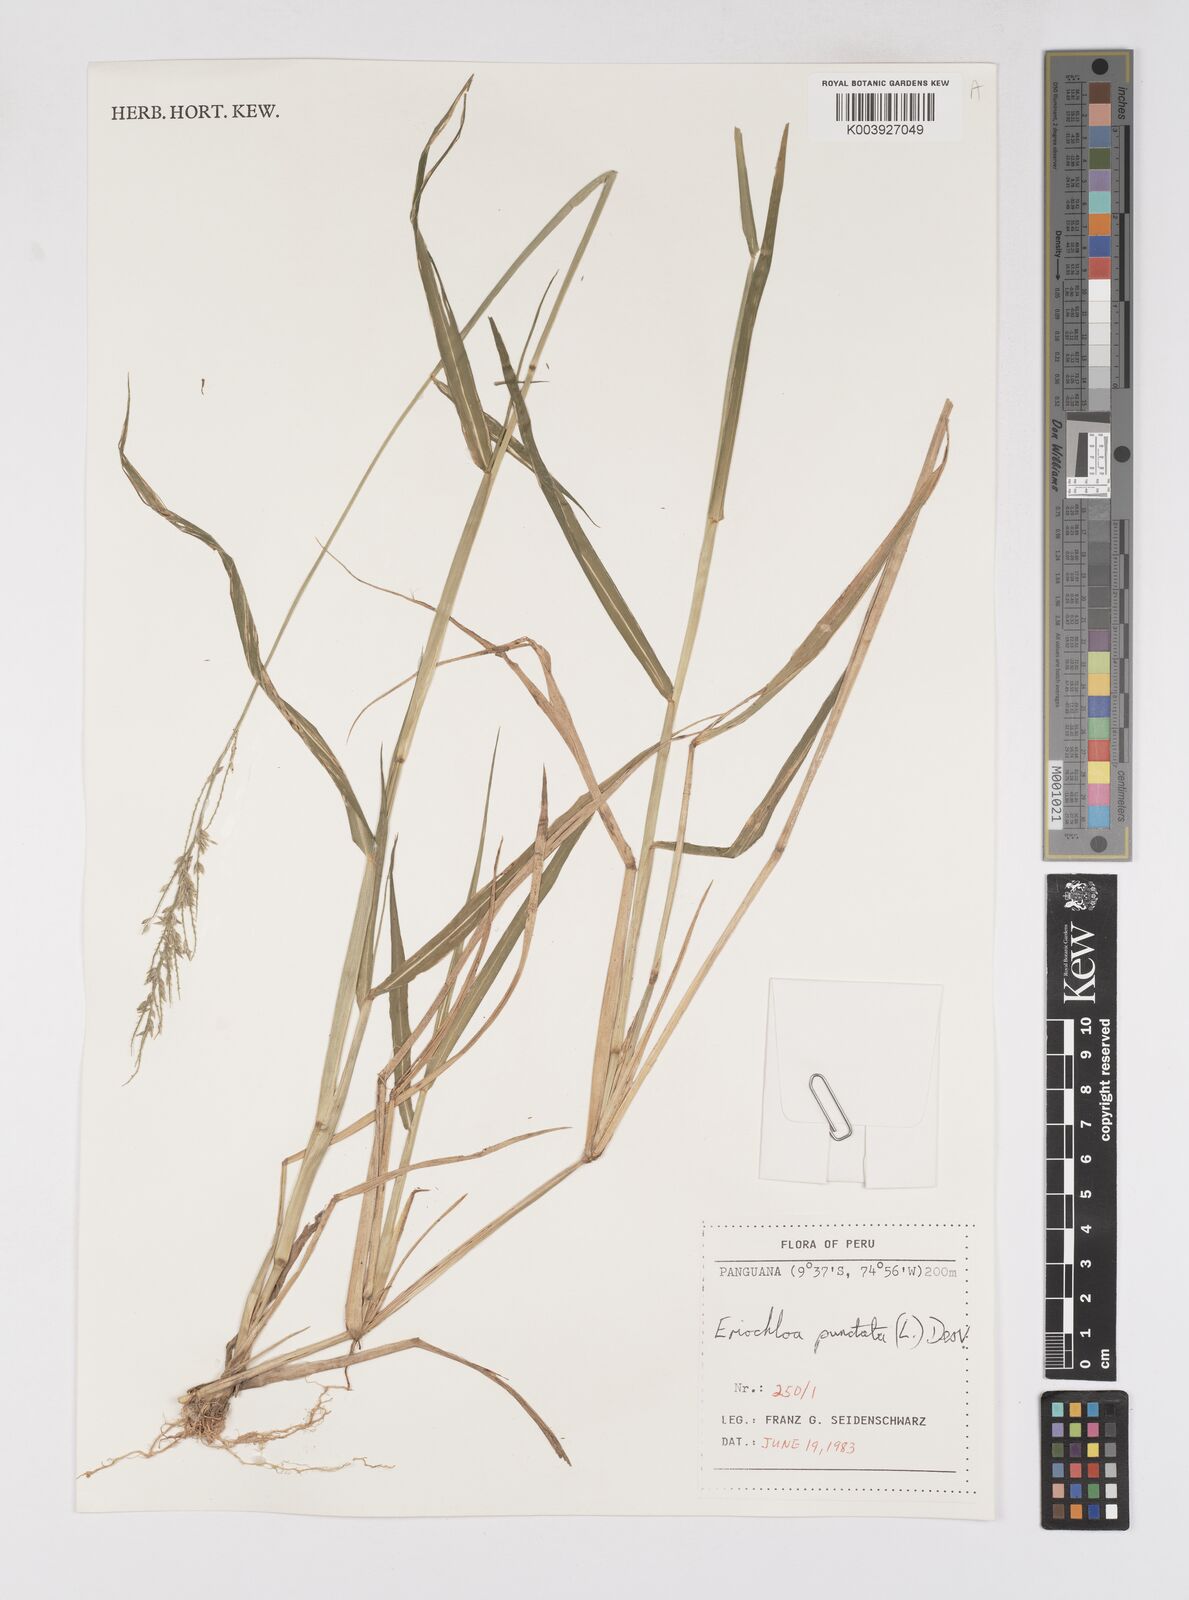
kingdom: Plantae
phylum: Tracheophyta
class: Liliopsida
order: Poales
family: Poaceae
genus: Eriochloa
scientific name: Eriochloa punctata
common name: Louisiana cupgrass
